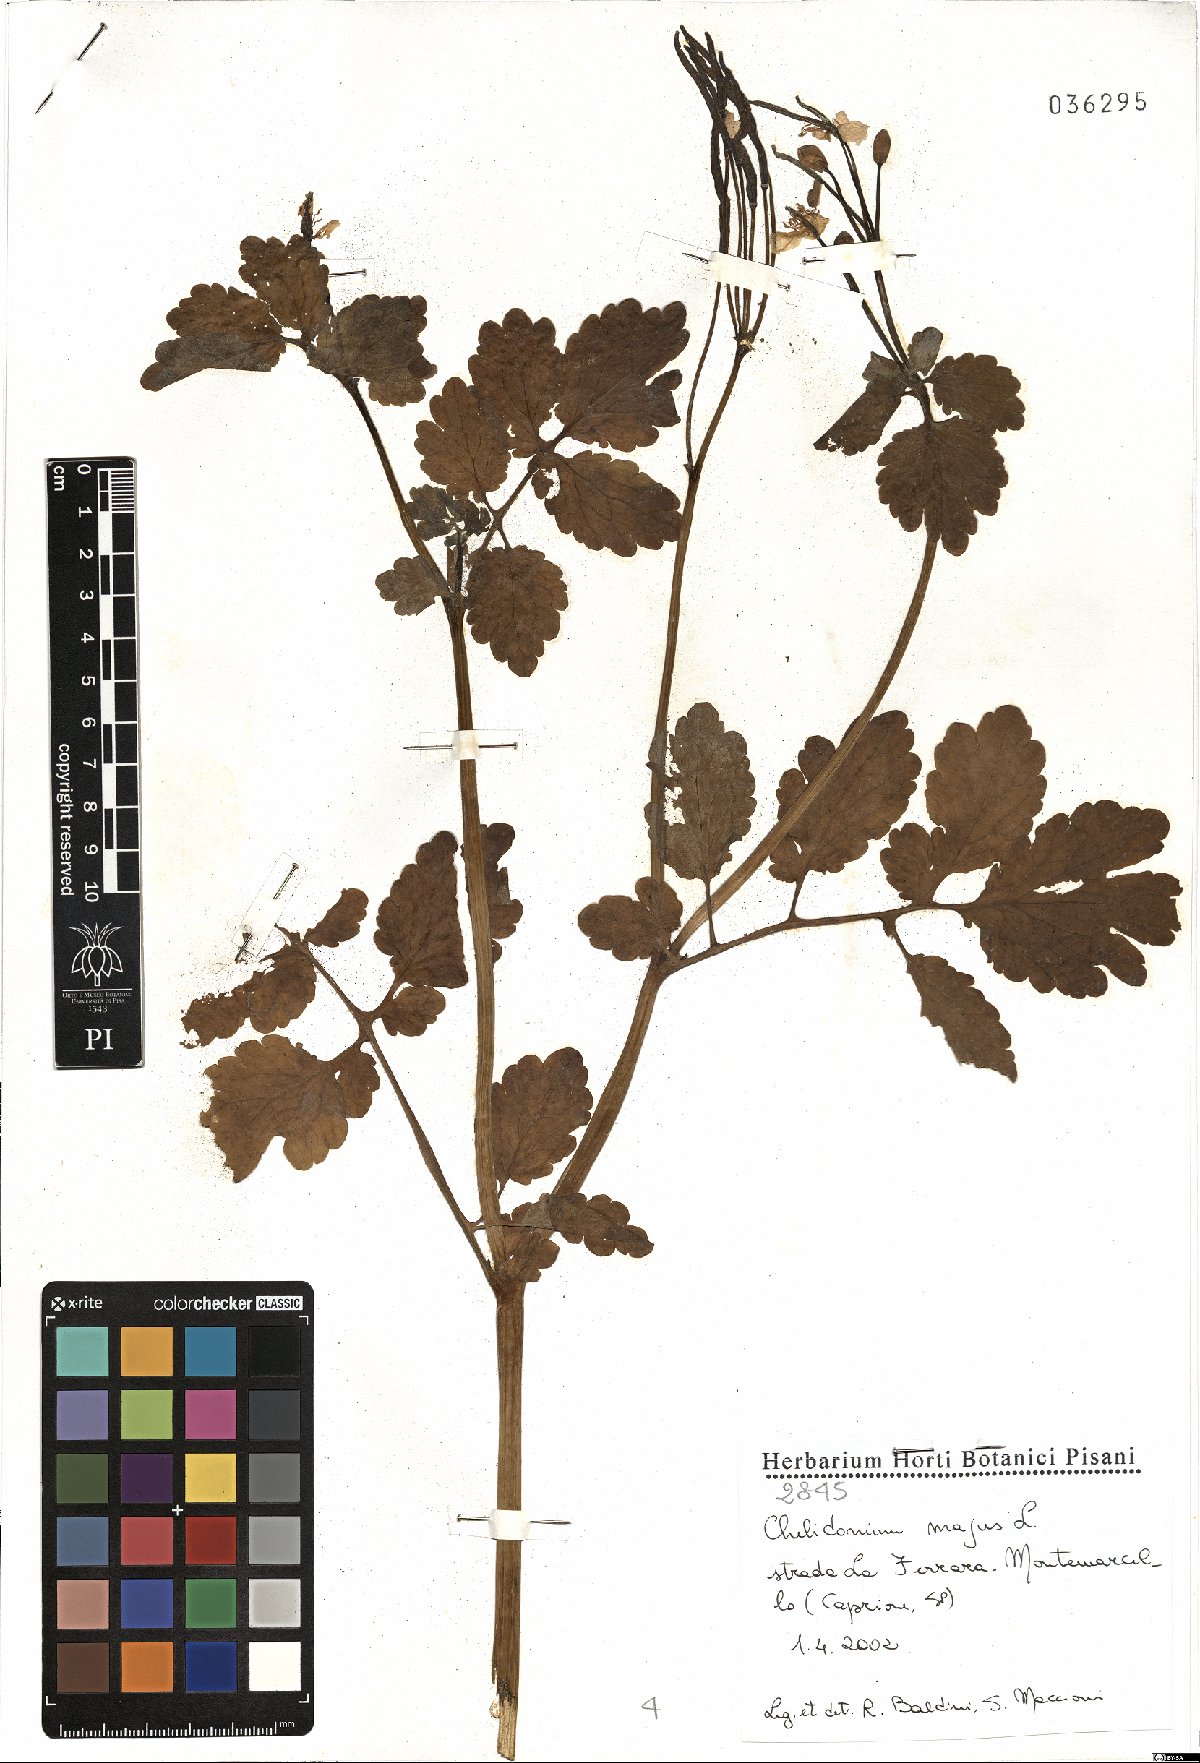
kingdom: Plantae
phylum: Tracheophyta
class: Magnoliopsida
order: Ranunculales
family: Papaveraceae
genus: Chelidonium
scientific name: Chelidonium majus
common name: Greater celandine
